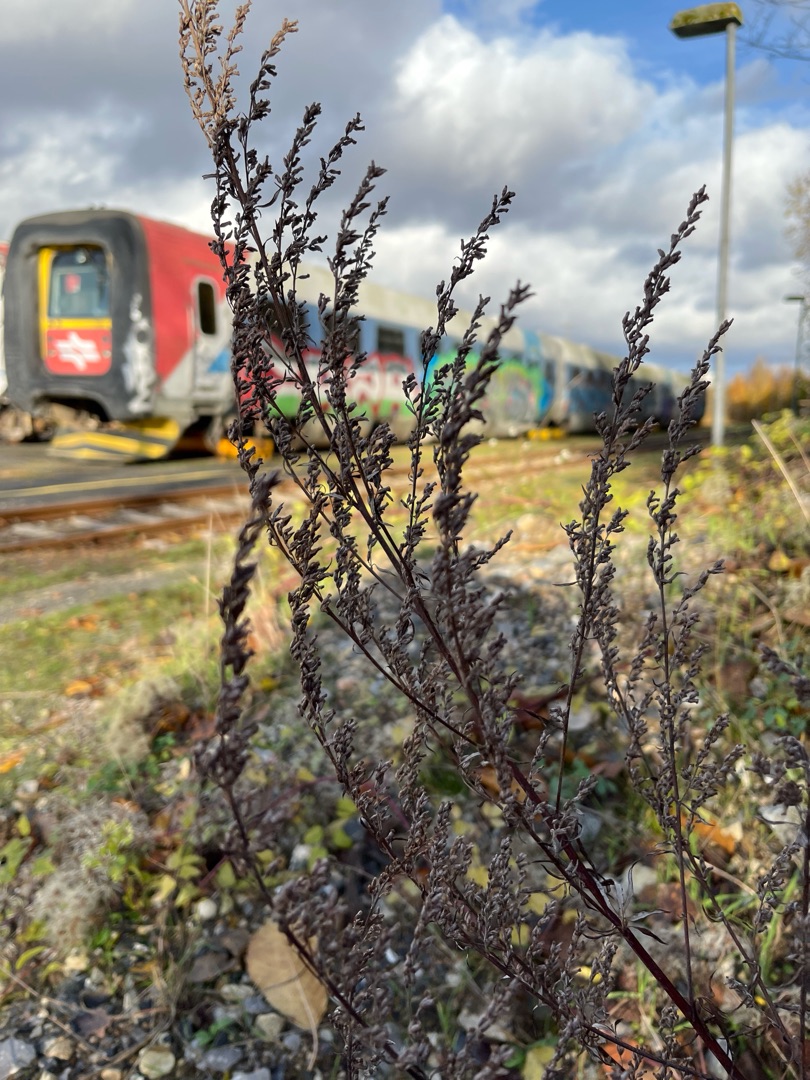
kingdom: Plantae
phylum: Tracheophyta
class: Magnoliopsida
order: Asterales
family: Asteraceae
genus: Artemisia
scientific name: Artemisia vulgaris
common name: Grå-bynke
